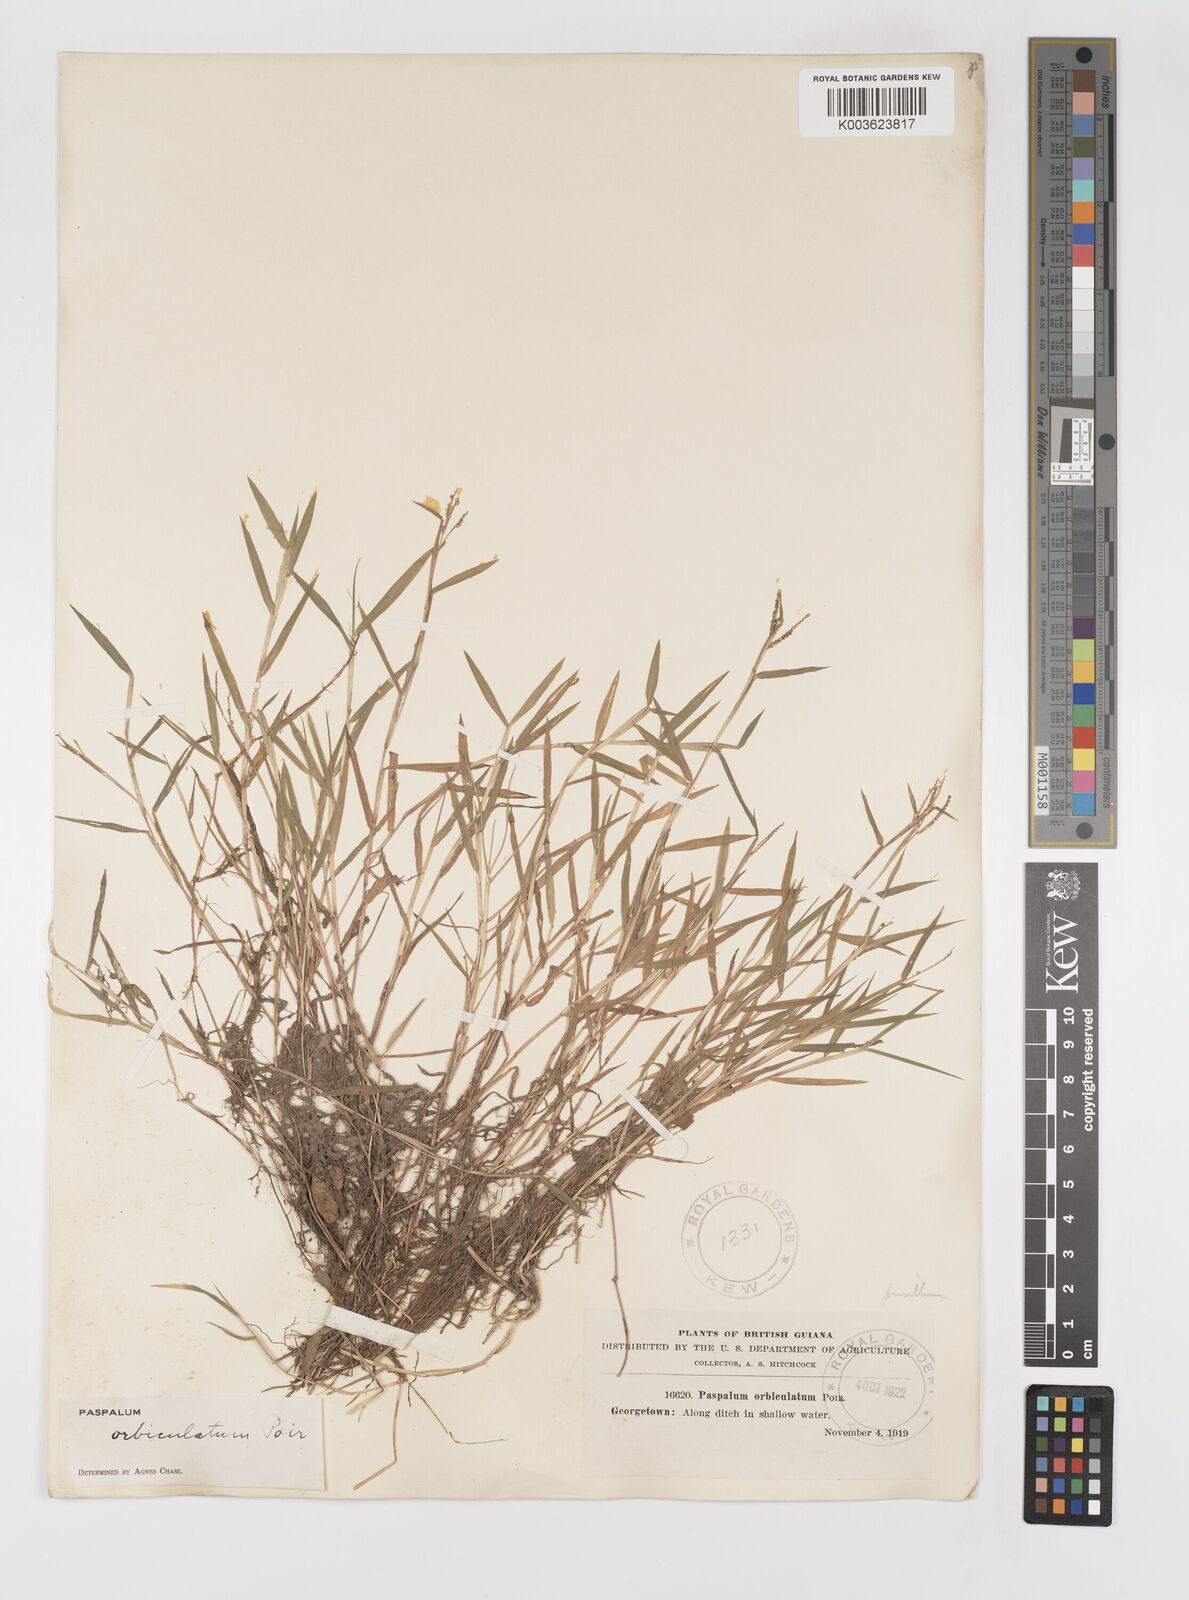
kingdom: Plantae
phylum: Tracheophyta
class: Liliopsida
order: Poales
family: Poaceae
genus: Paspalum
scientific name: Paspalum orbiculatum
